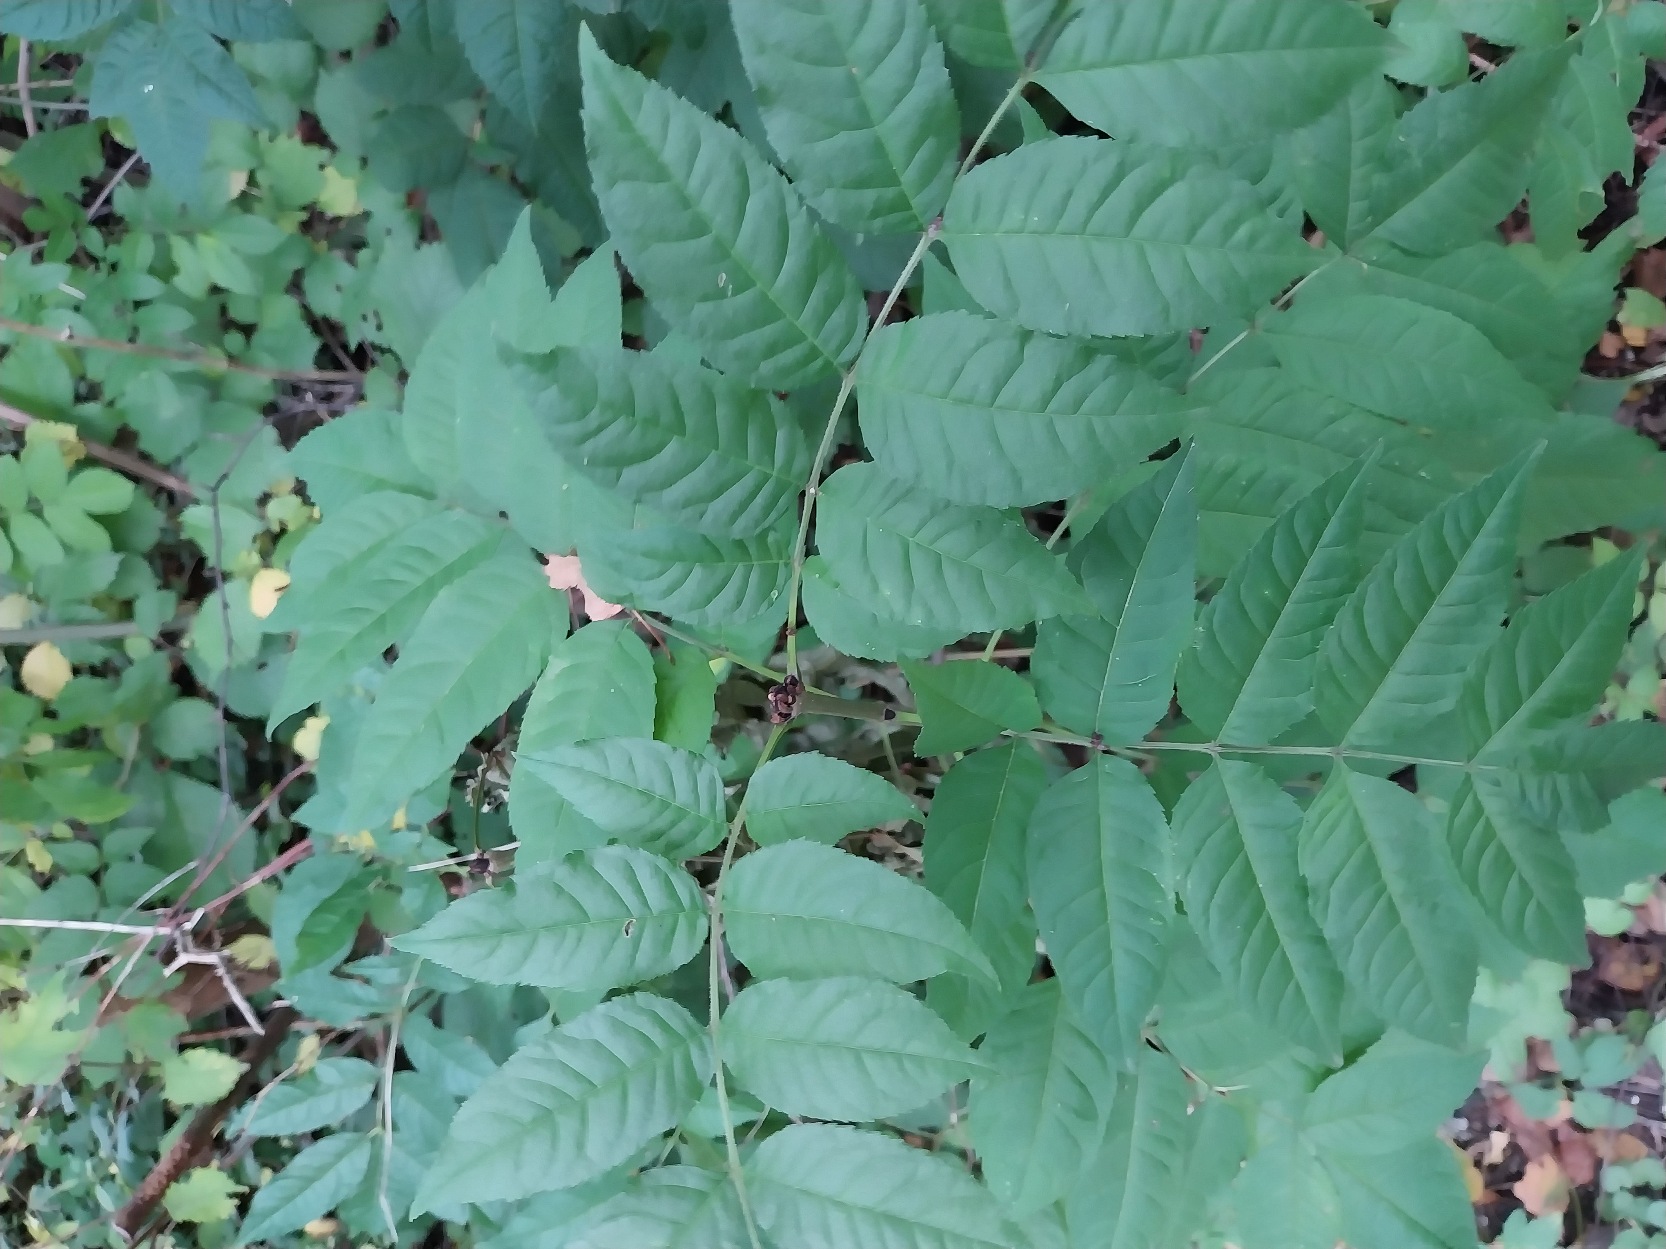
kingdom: Plantae
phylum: Tracheophyta
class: Magnoliopsida
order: Lamiales
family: Oleaceae
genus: Fraxinus
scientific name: Fraxinus excelsior
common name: Ask
